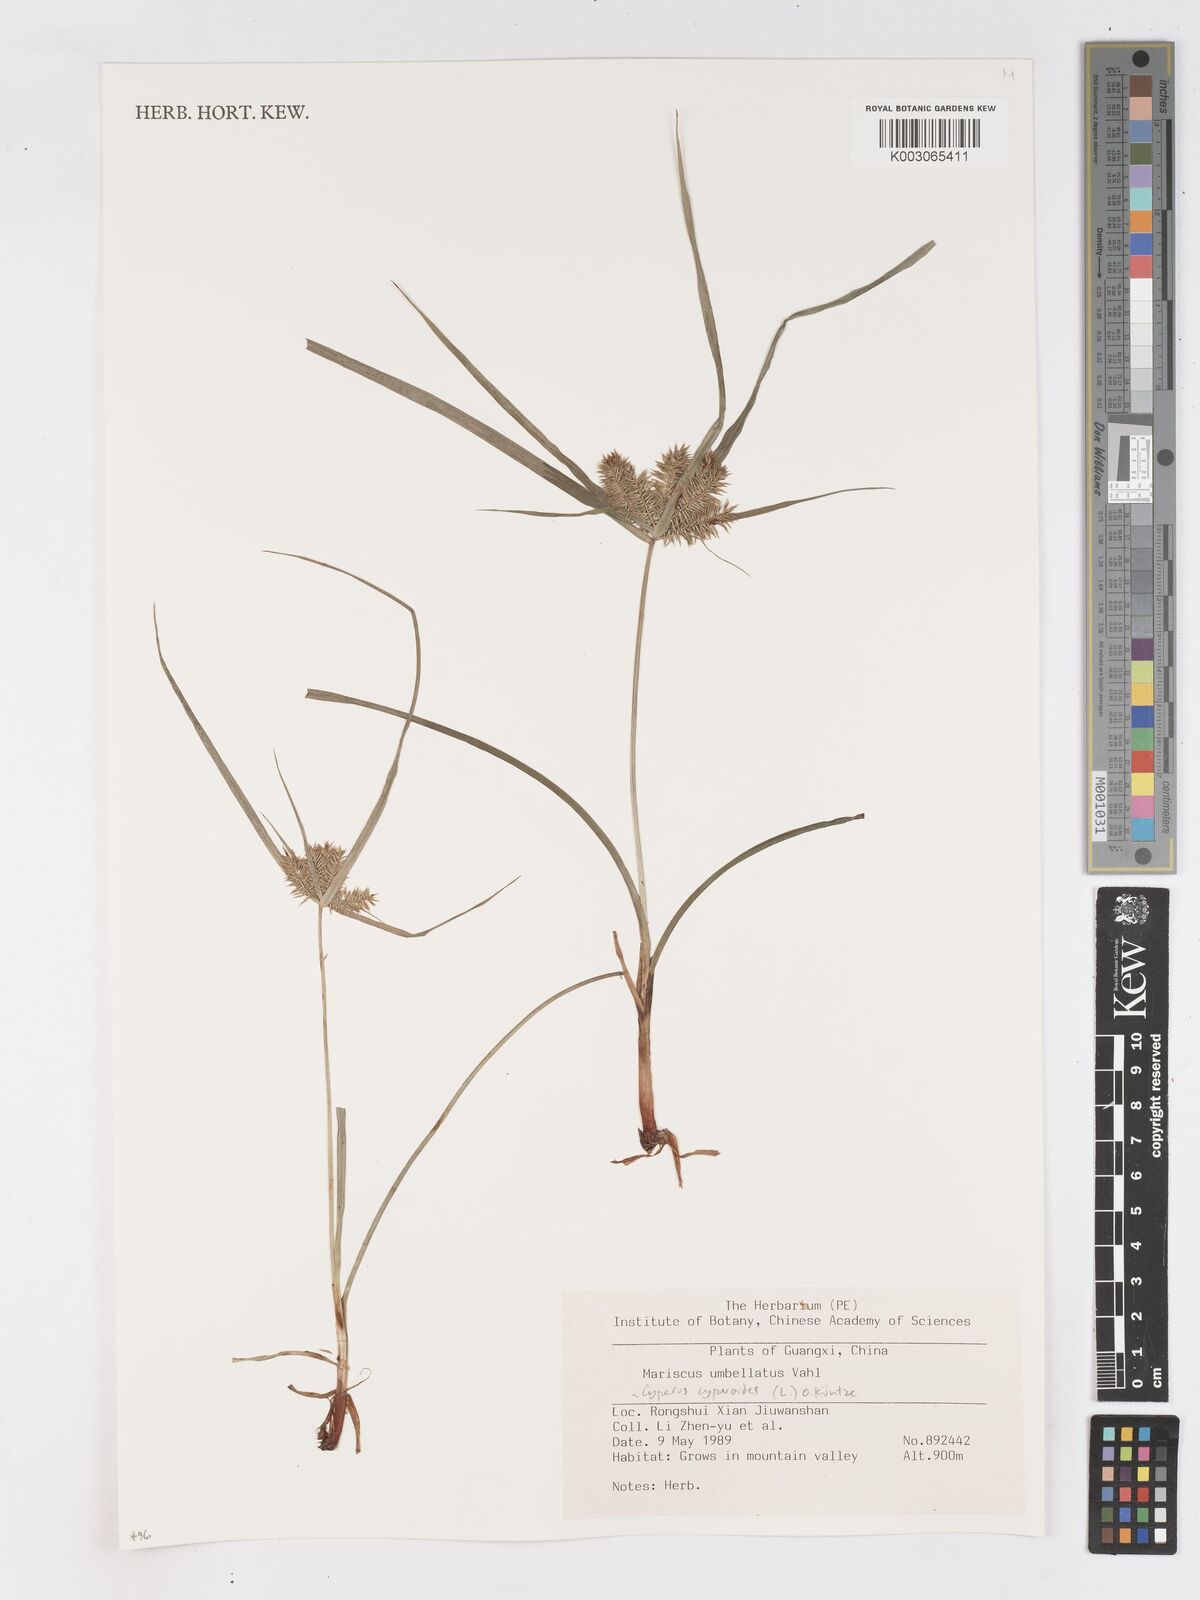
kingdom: Plantae
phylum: Tracheophyta
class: Liliopsida
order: Poales
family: Cyperaceae
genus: Cyperus
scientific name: Cyperus cyperoides
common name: Pacific island flat sedge
